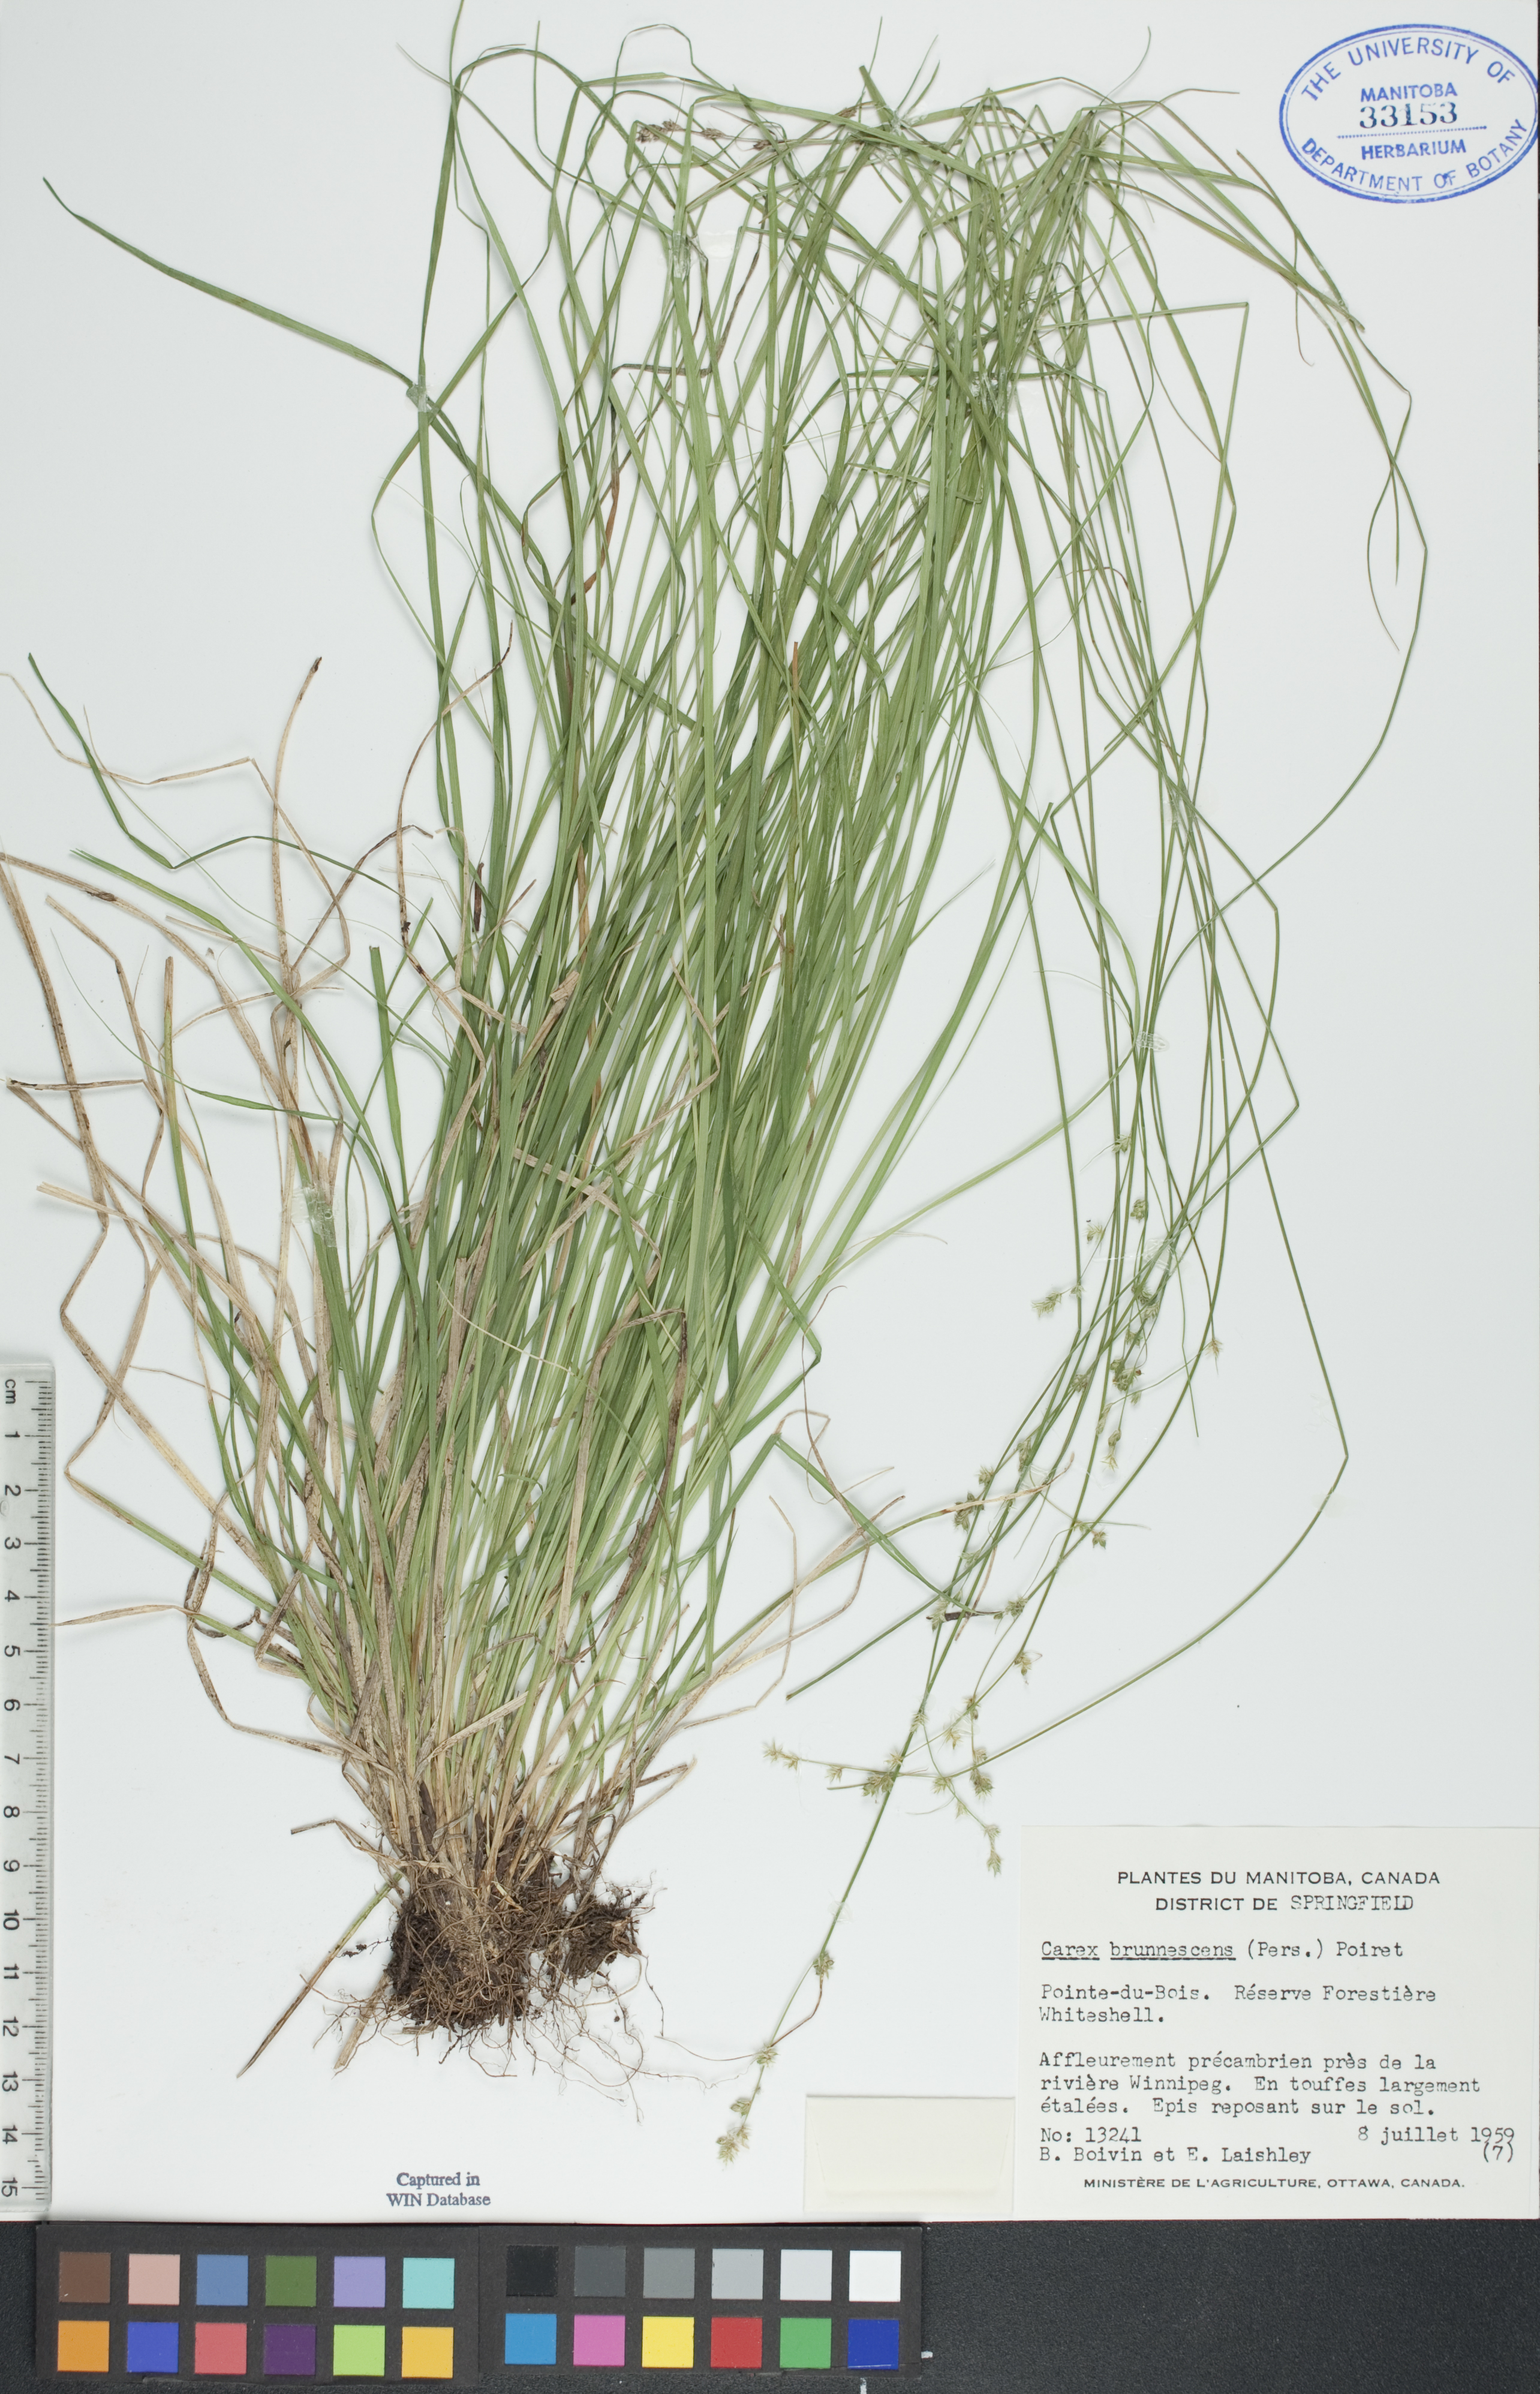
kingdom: Plantae
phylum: Tracheophyta
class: Liliopsida
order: Poales
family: Cyperaceae
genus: Carex
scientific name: Carex brunnescens
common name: Brown sedge
